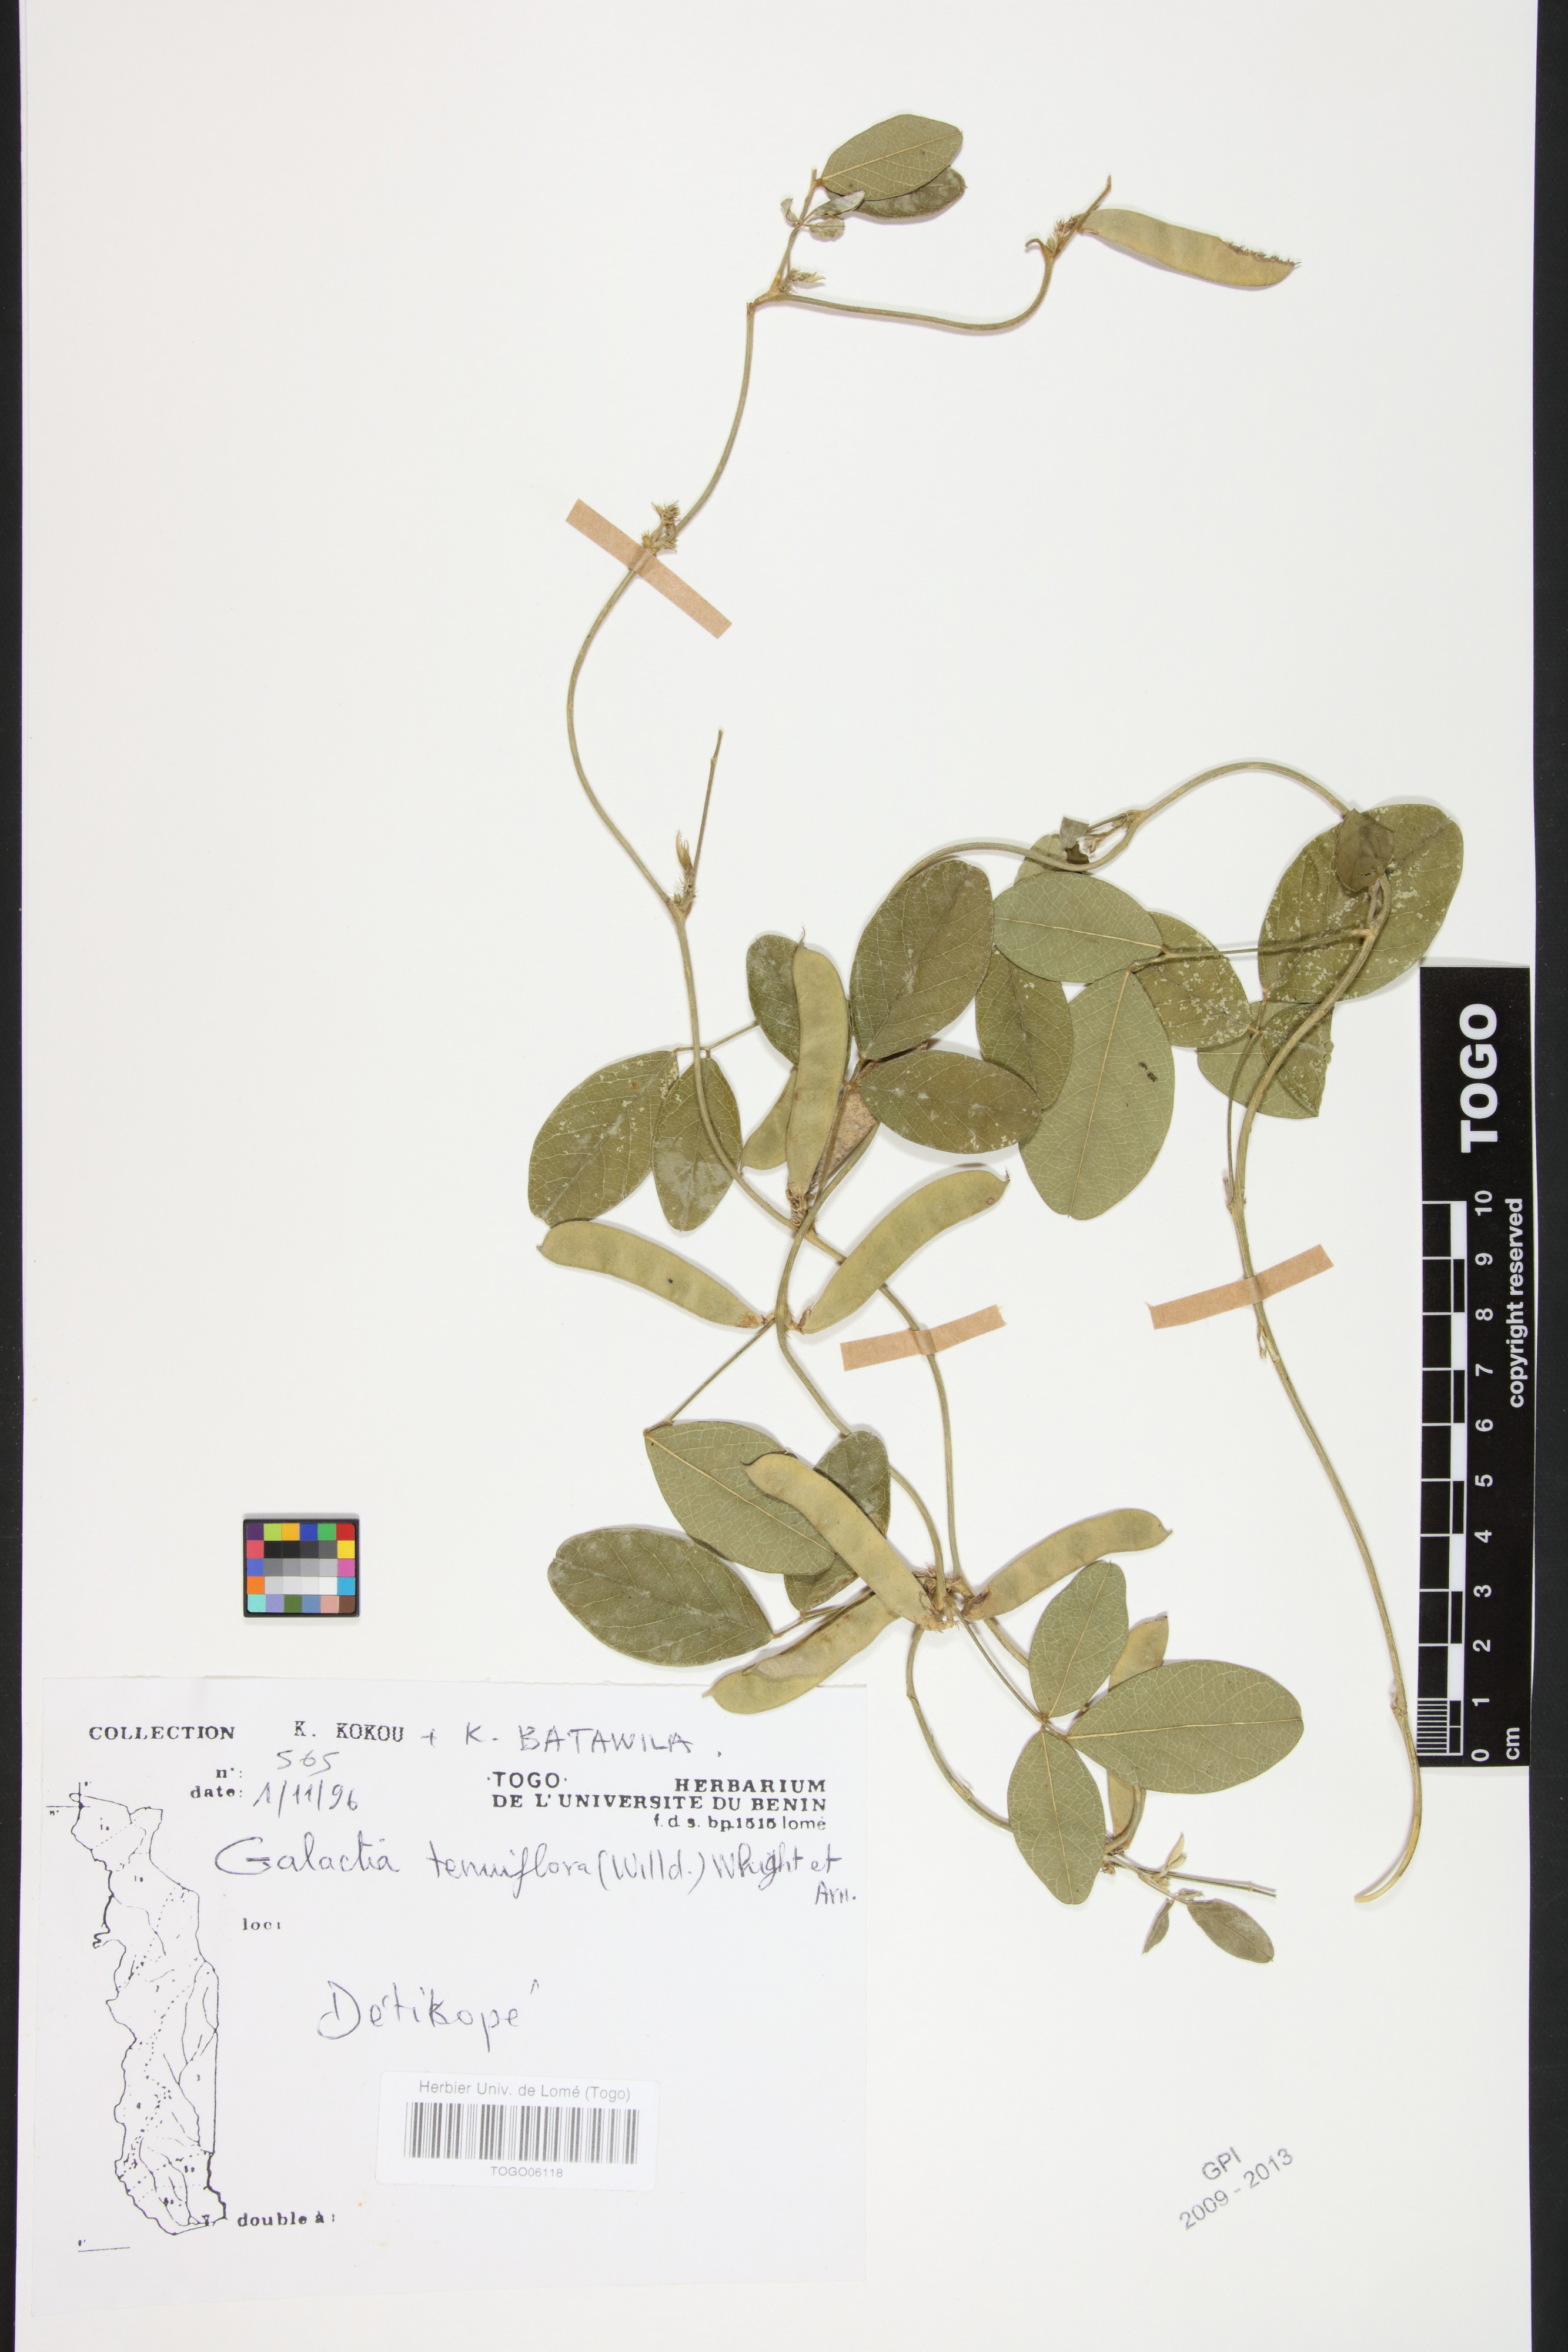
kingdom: Plantae
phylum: Tracheophyta
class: Magnoliopsida
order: Fabales
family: Fabaceae
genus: Galactia
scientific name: Galactia striata
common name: Florida hammock milkpea
